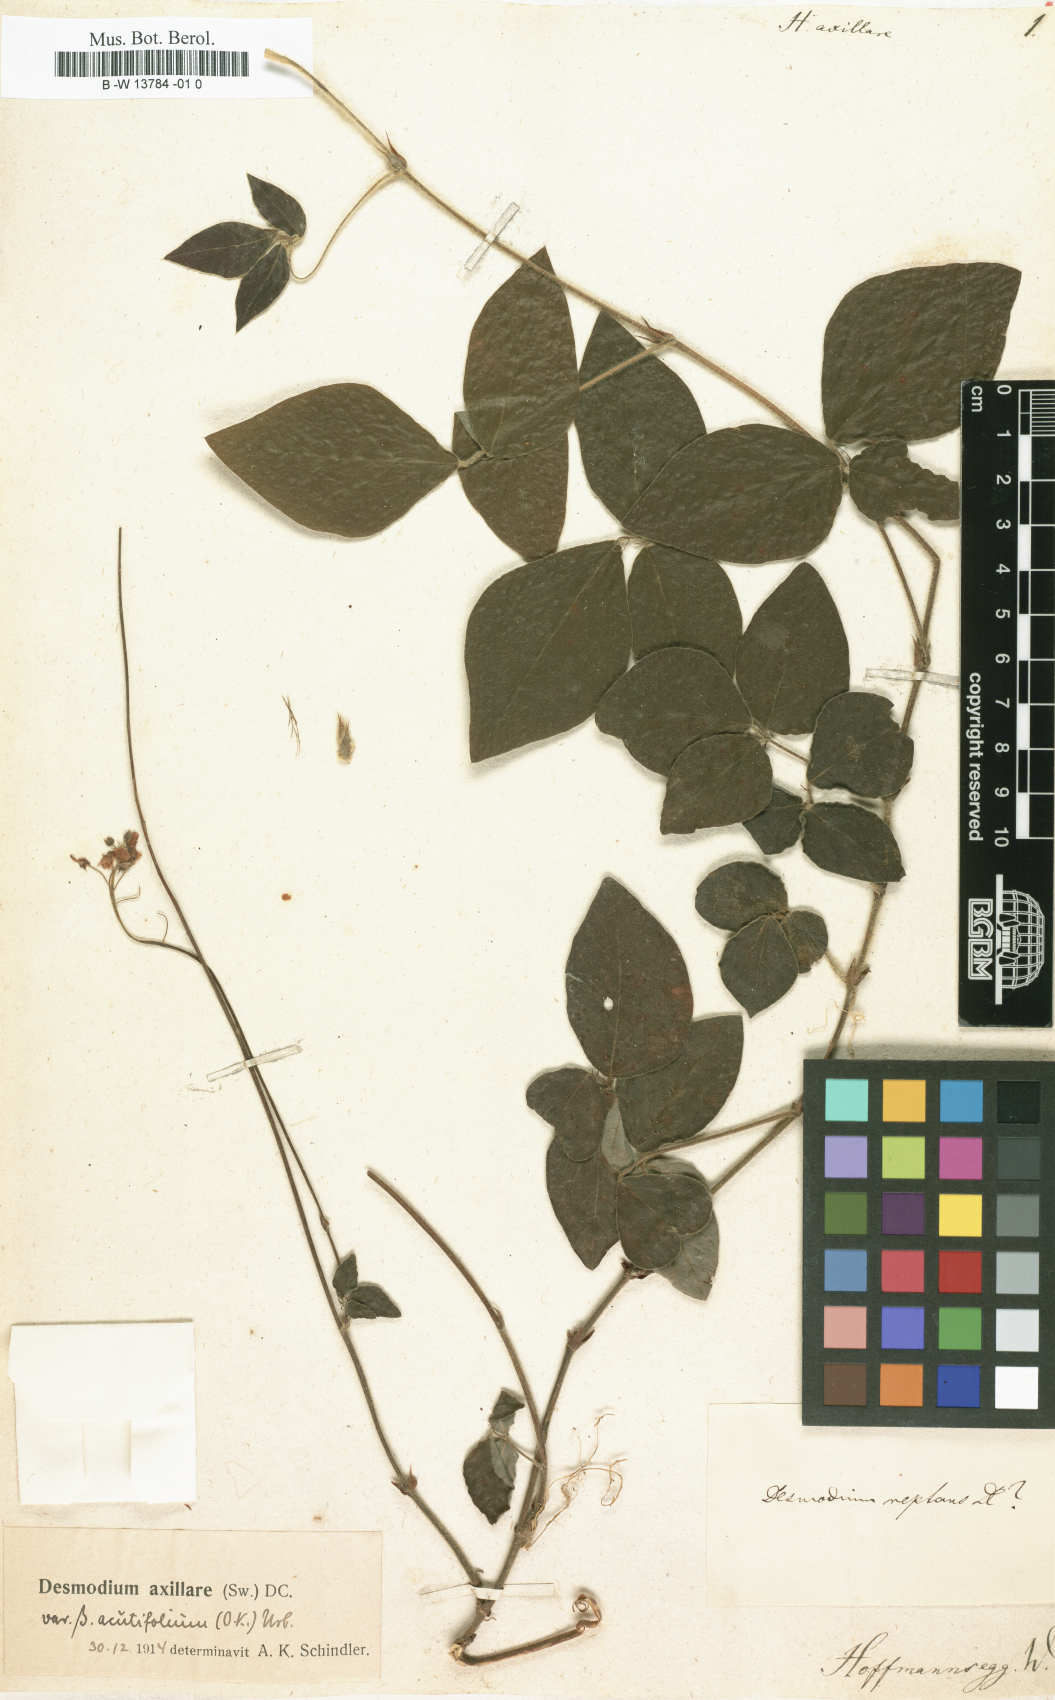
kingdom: Plantae
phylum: Tracheophyta
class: Magnoliopsida
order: Fabales
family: Fabaceae
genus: Desmodium
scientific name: Desmodium axillare
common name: Wire with
